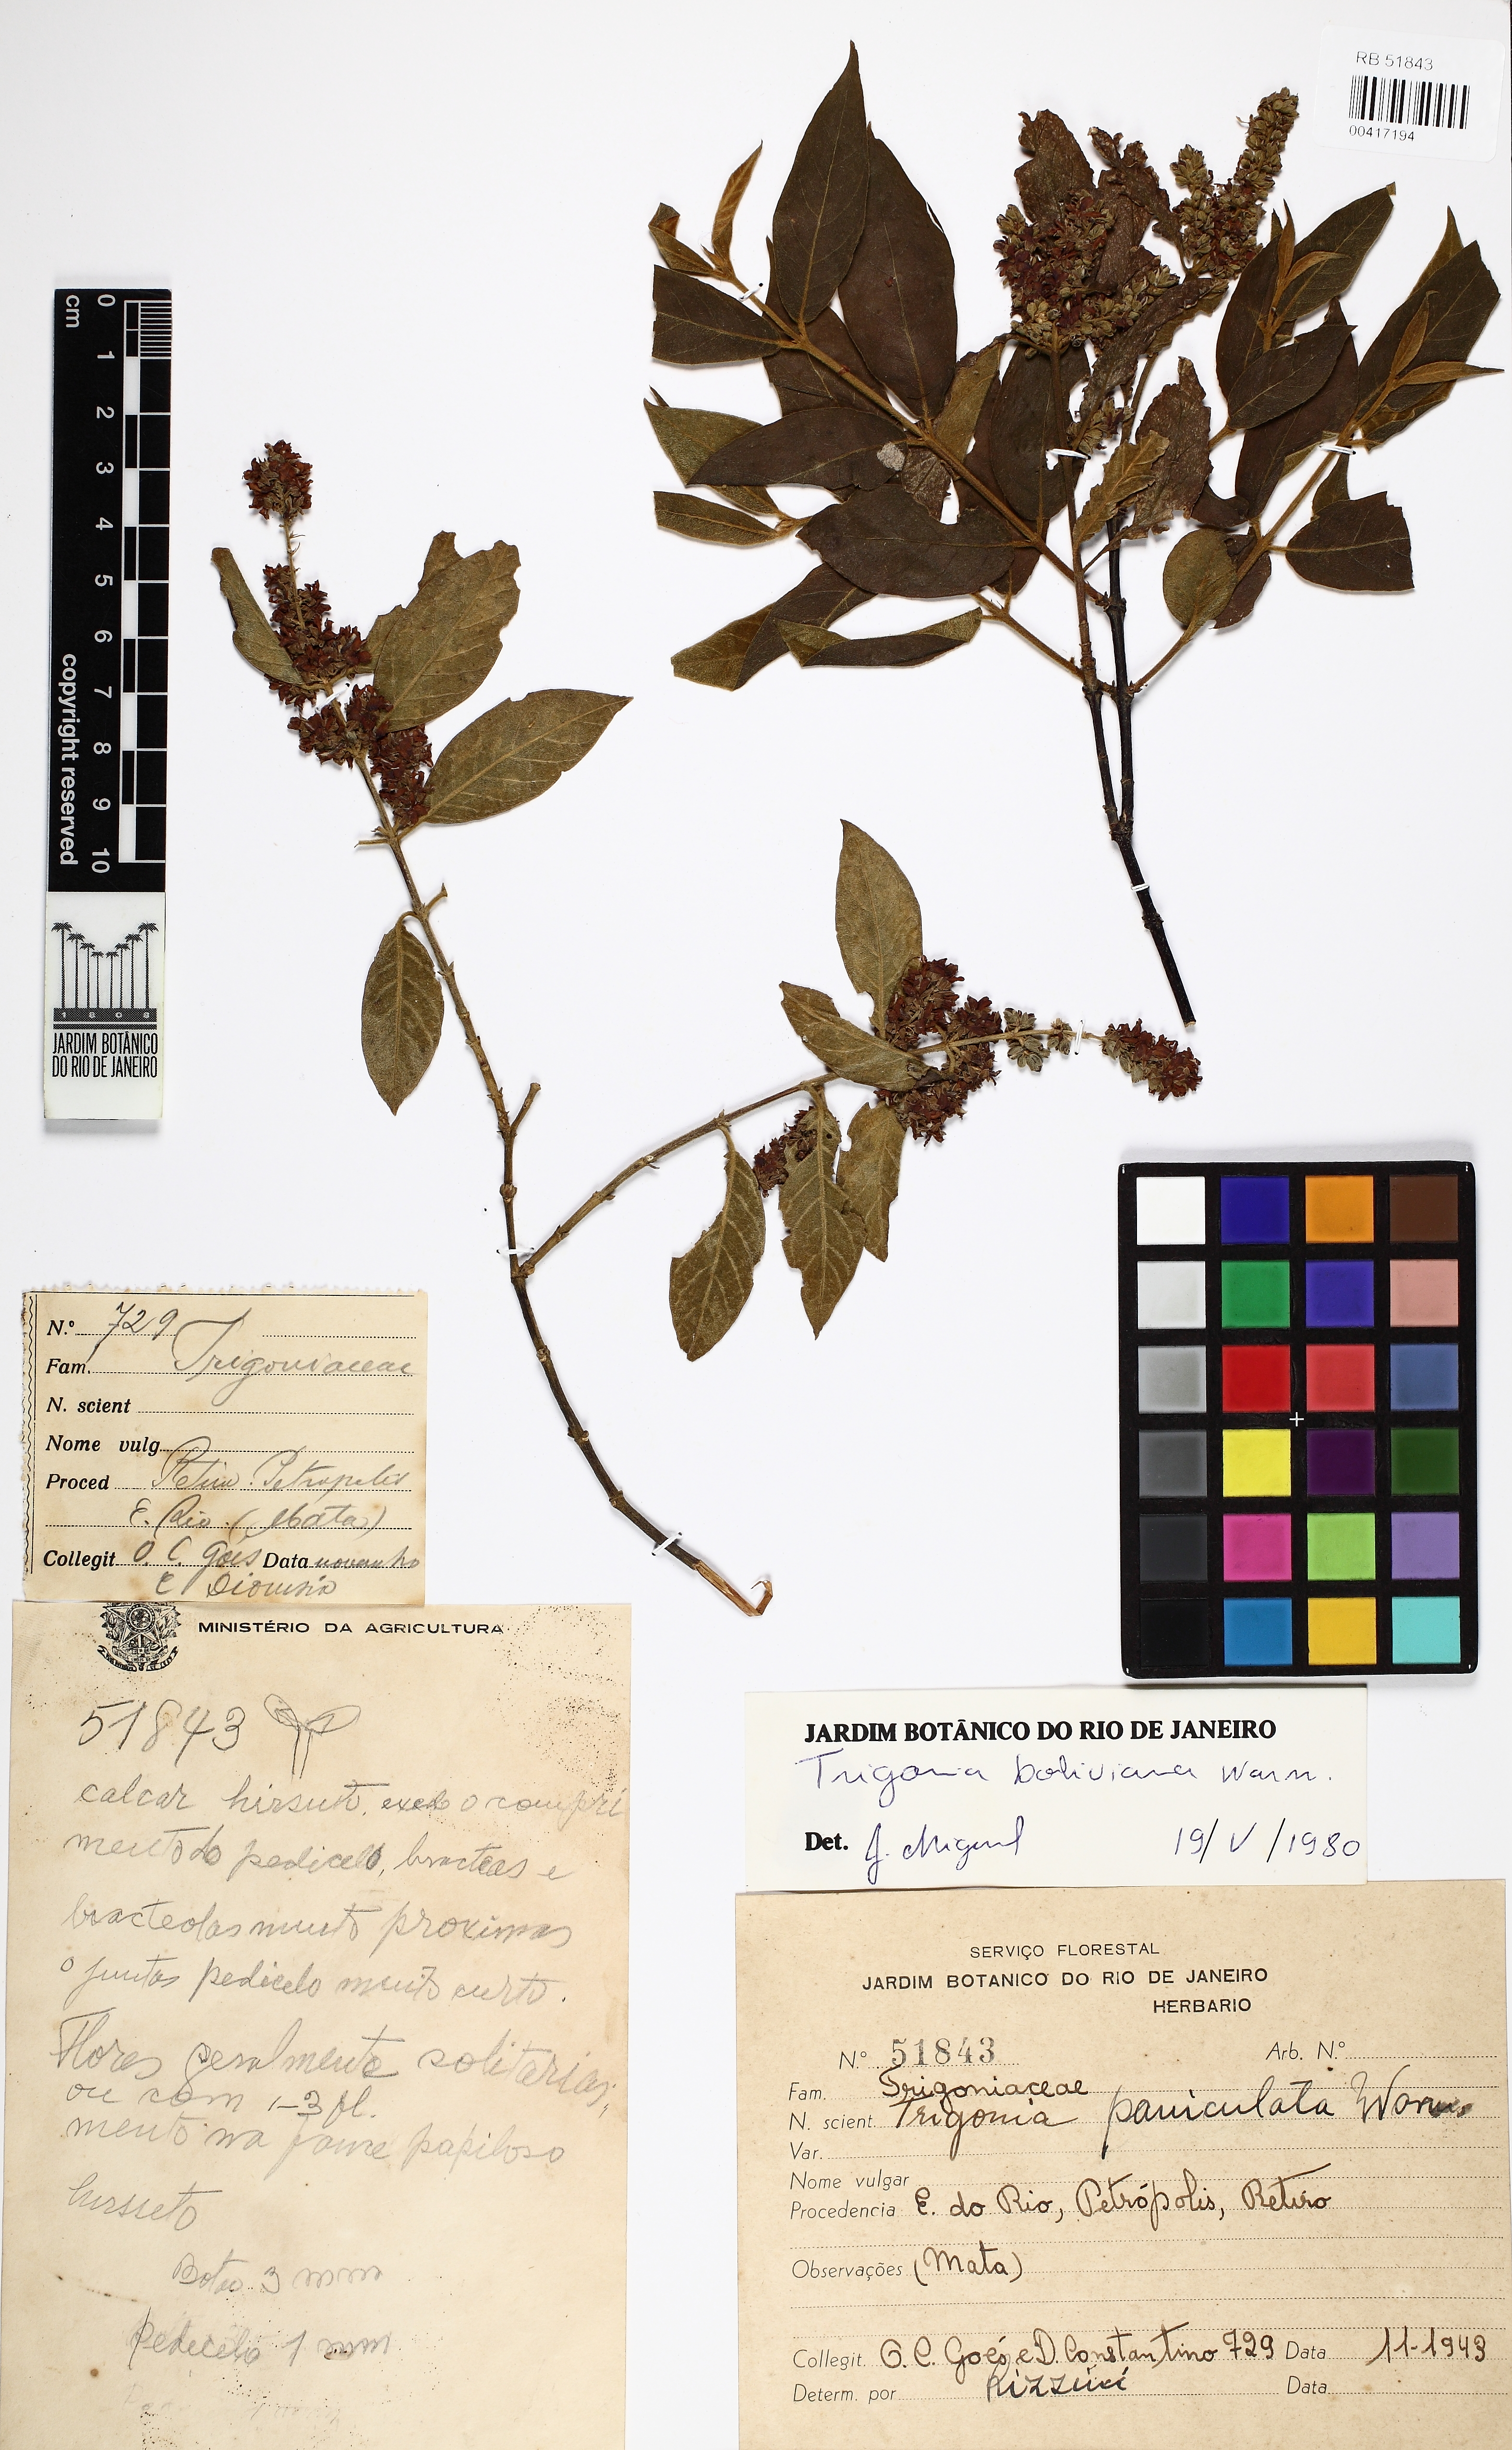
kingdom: Plantae
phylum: Tracheophyta
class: Magnoliopsida
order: Malpighiales
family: Trigoniaceae
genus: Trigonia
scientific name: Trigonia boliviana
